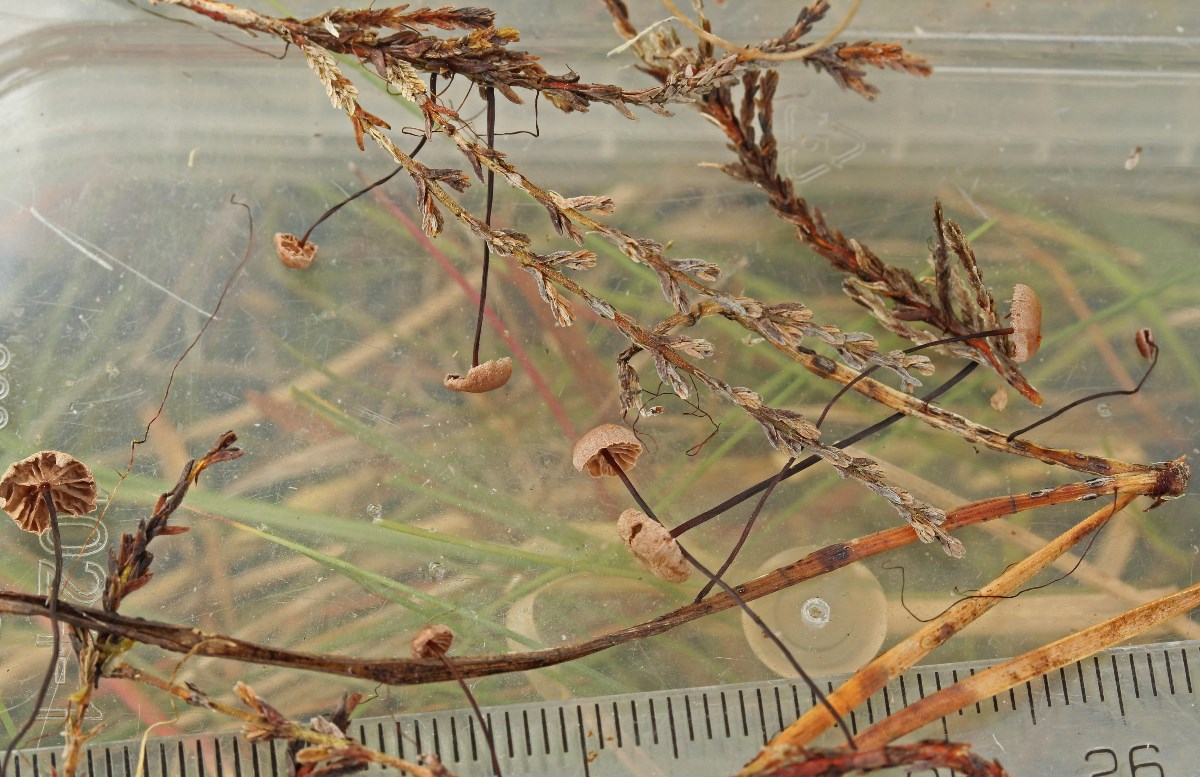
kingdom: Fungi
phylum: Basidiomycota
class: Agaricomycetes
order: Agaricales
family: Omphalotaceae
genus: Gymnopus
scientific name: Gymnopus androsaceus
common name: trådstokket fladhat
